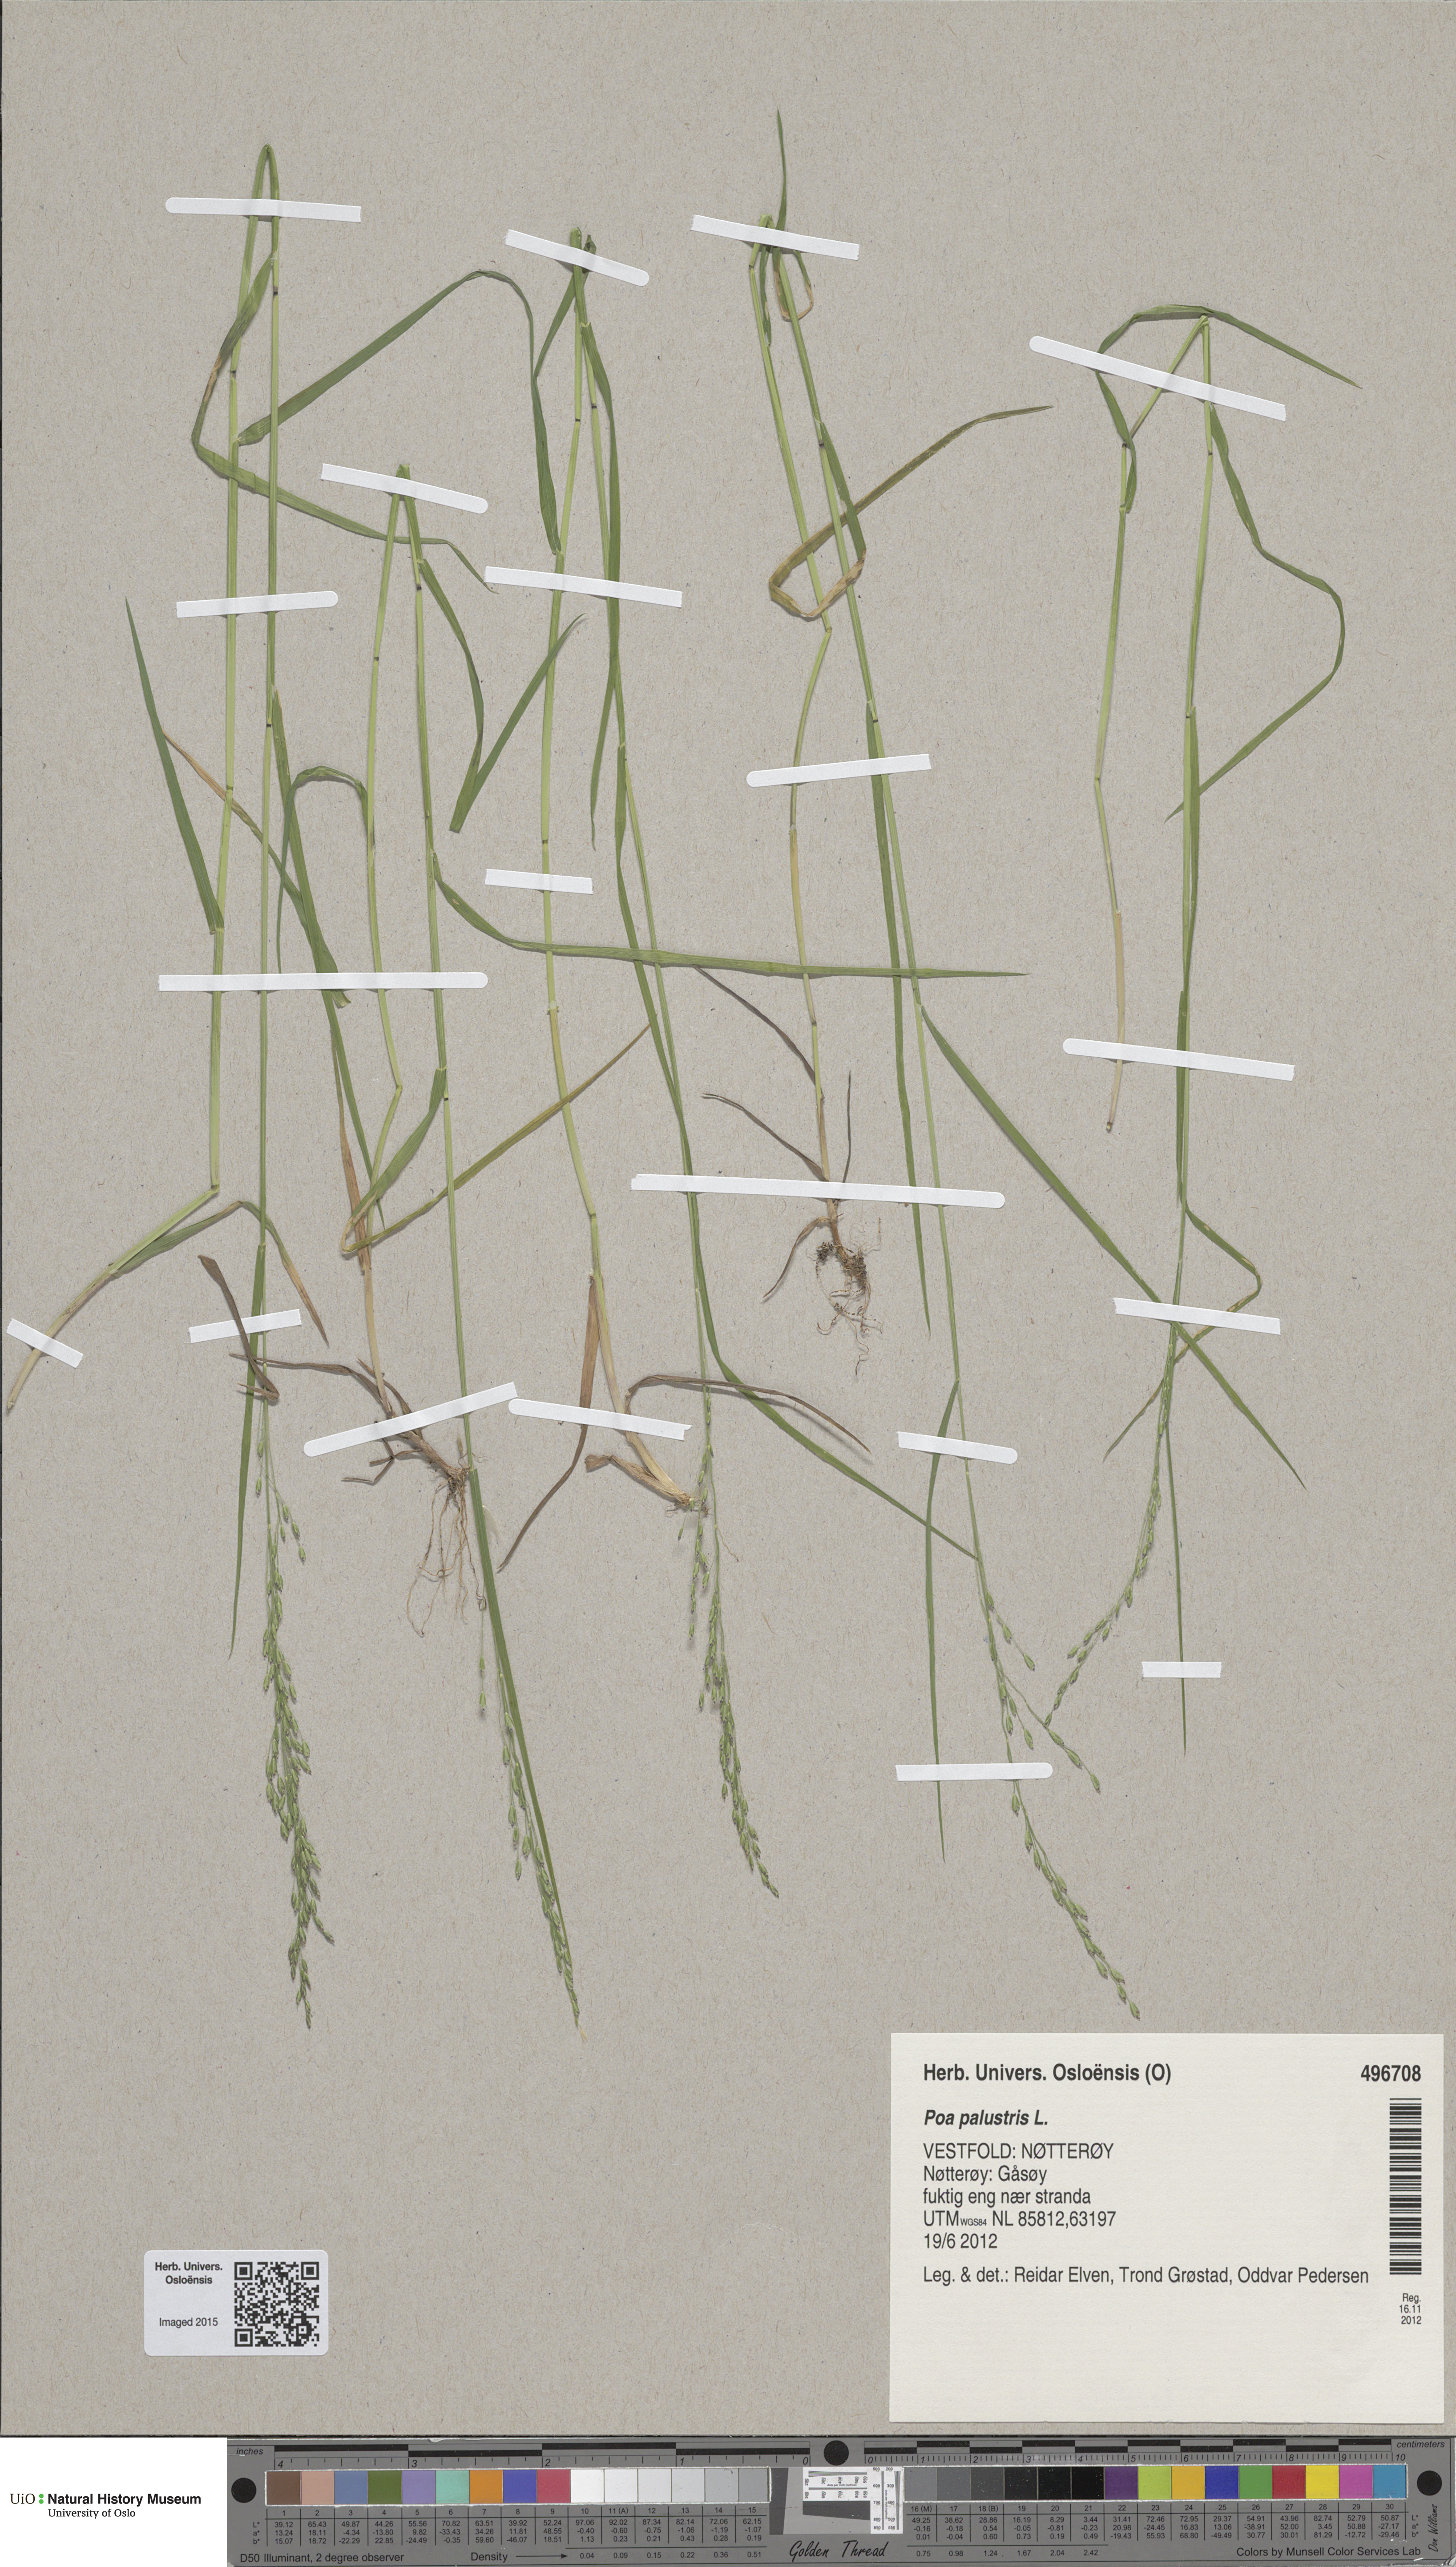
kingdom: Plantae
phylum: Tracheophyta
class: Liliopsida
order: Poales
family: Poaceae
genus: Poa
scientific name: Poa palustris
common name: Swamp meadow-grass
